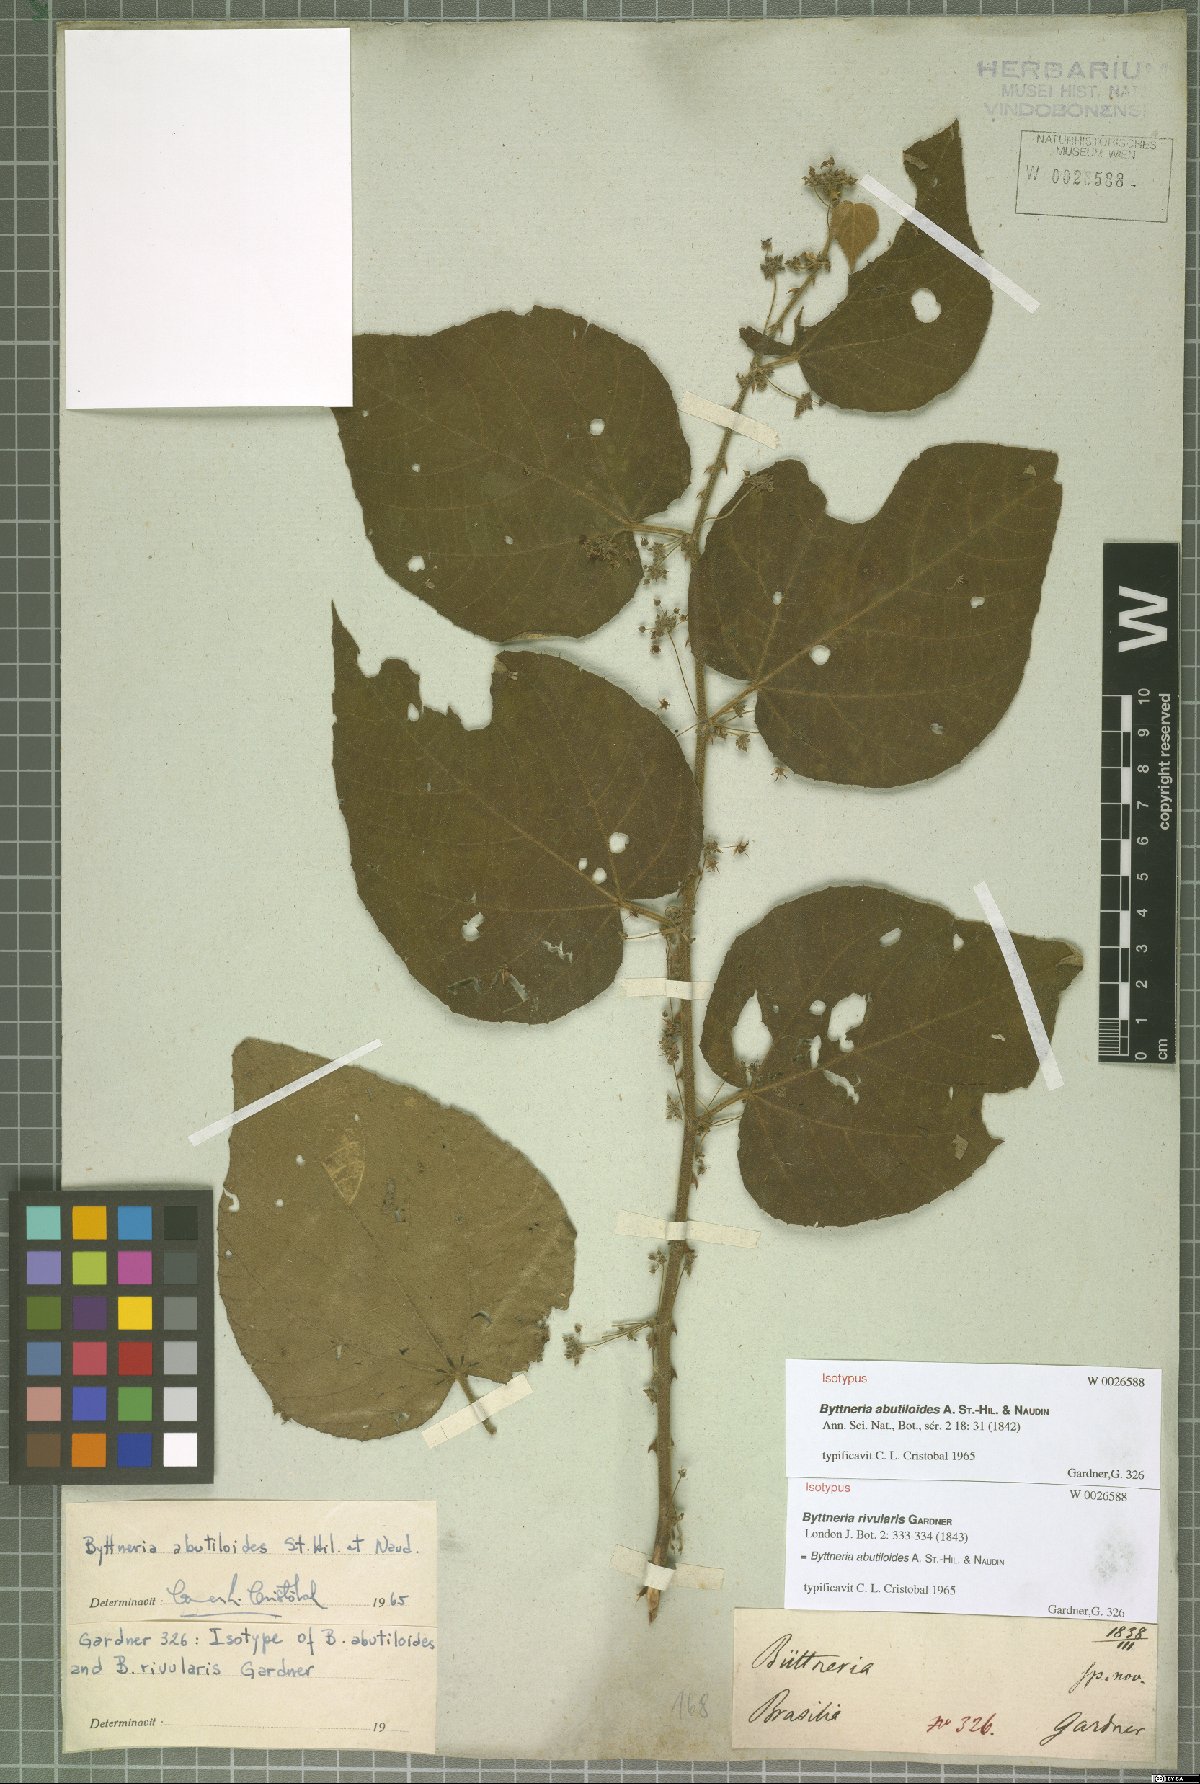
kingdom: Plantae
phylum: Tracheophyta
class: Magnoliopsida
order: Malvales
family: Malvaceae
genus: Byttneria
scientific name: Byttneria abutiloides
